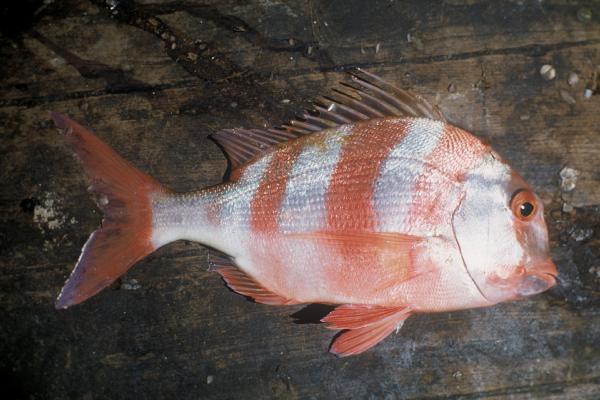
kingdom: Animalia
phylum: Chordata
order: Perciformes
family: Sparidae
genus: Chrysoblephus
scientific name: Chrysoblephus anglicus
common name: Englishman
